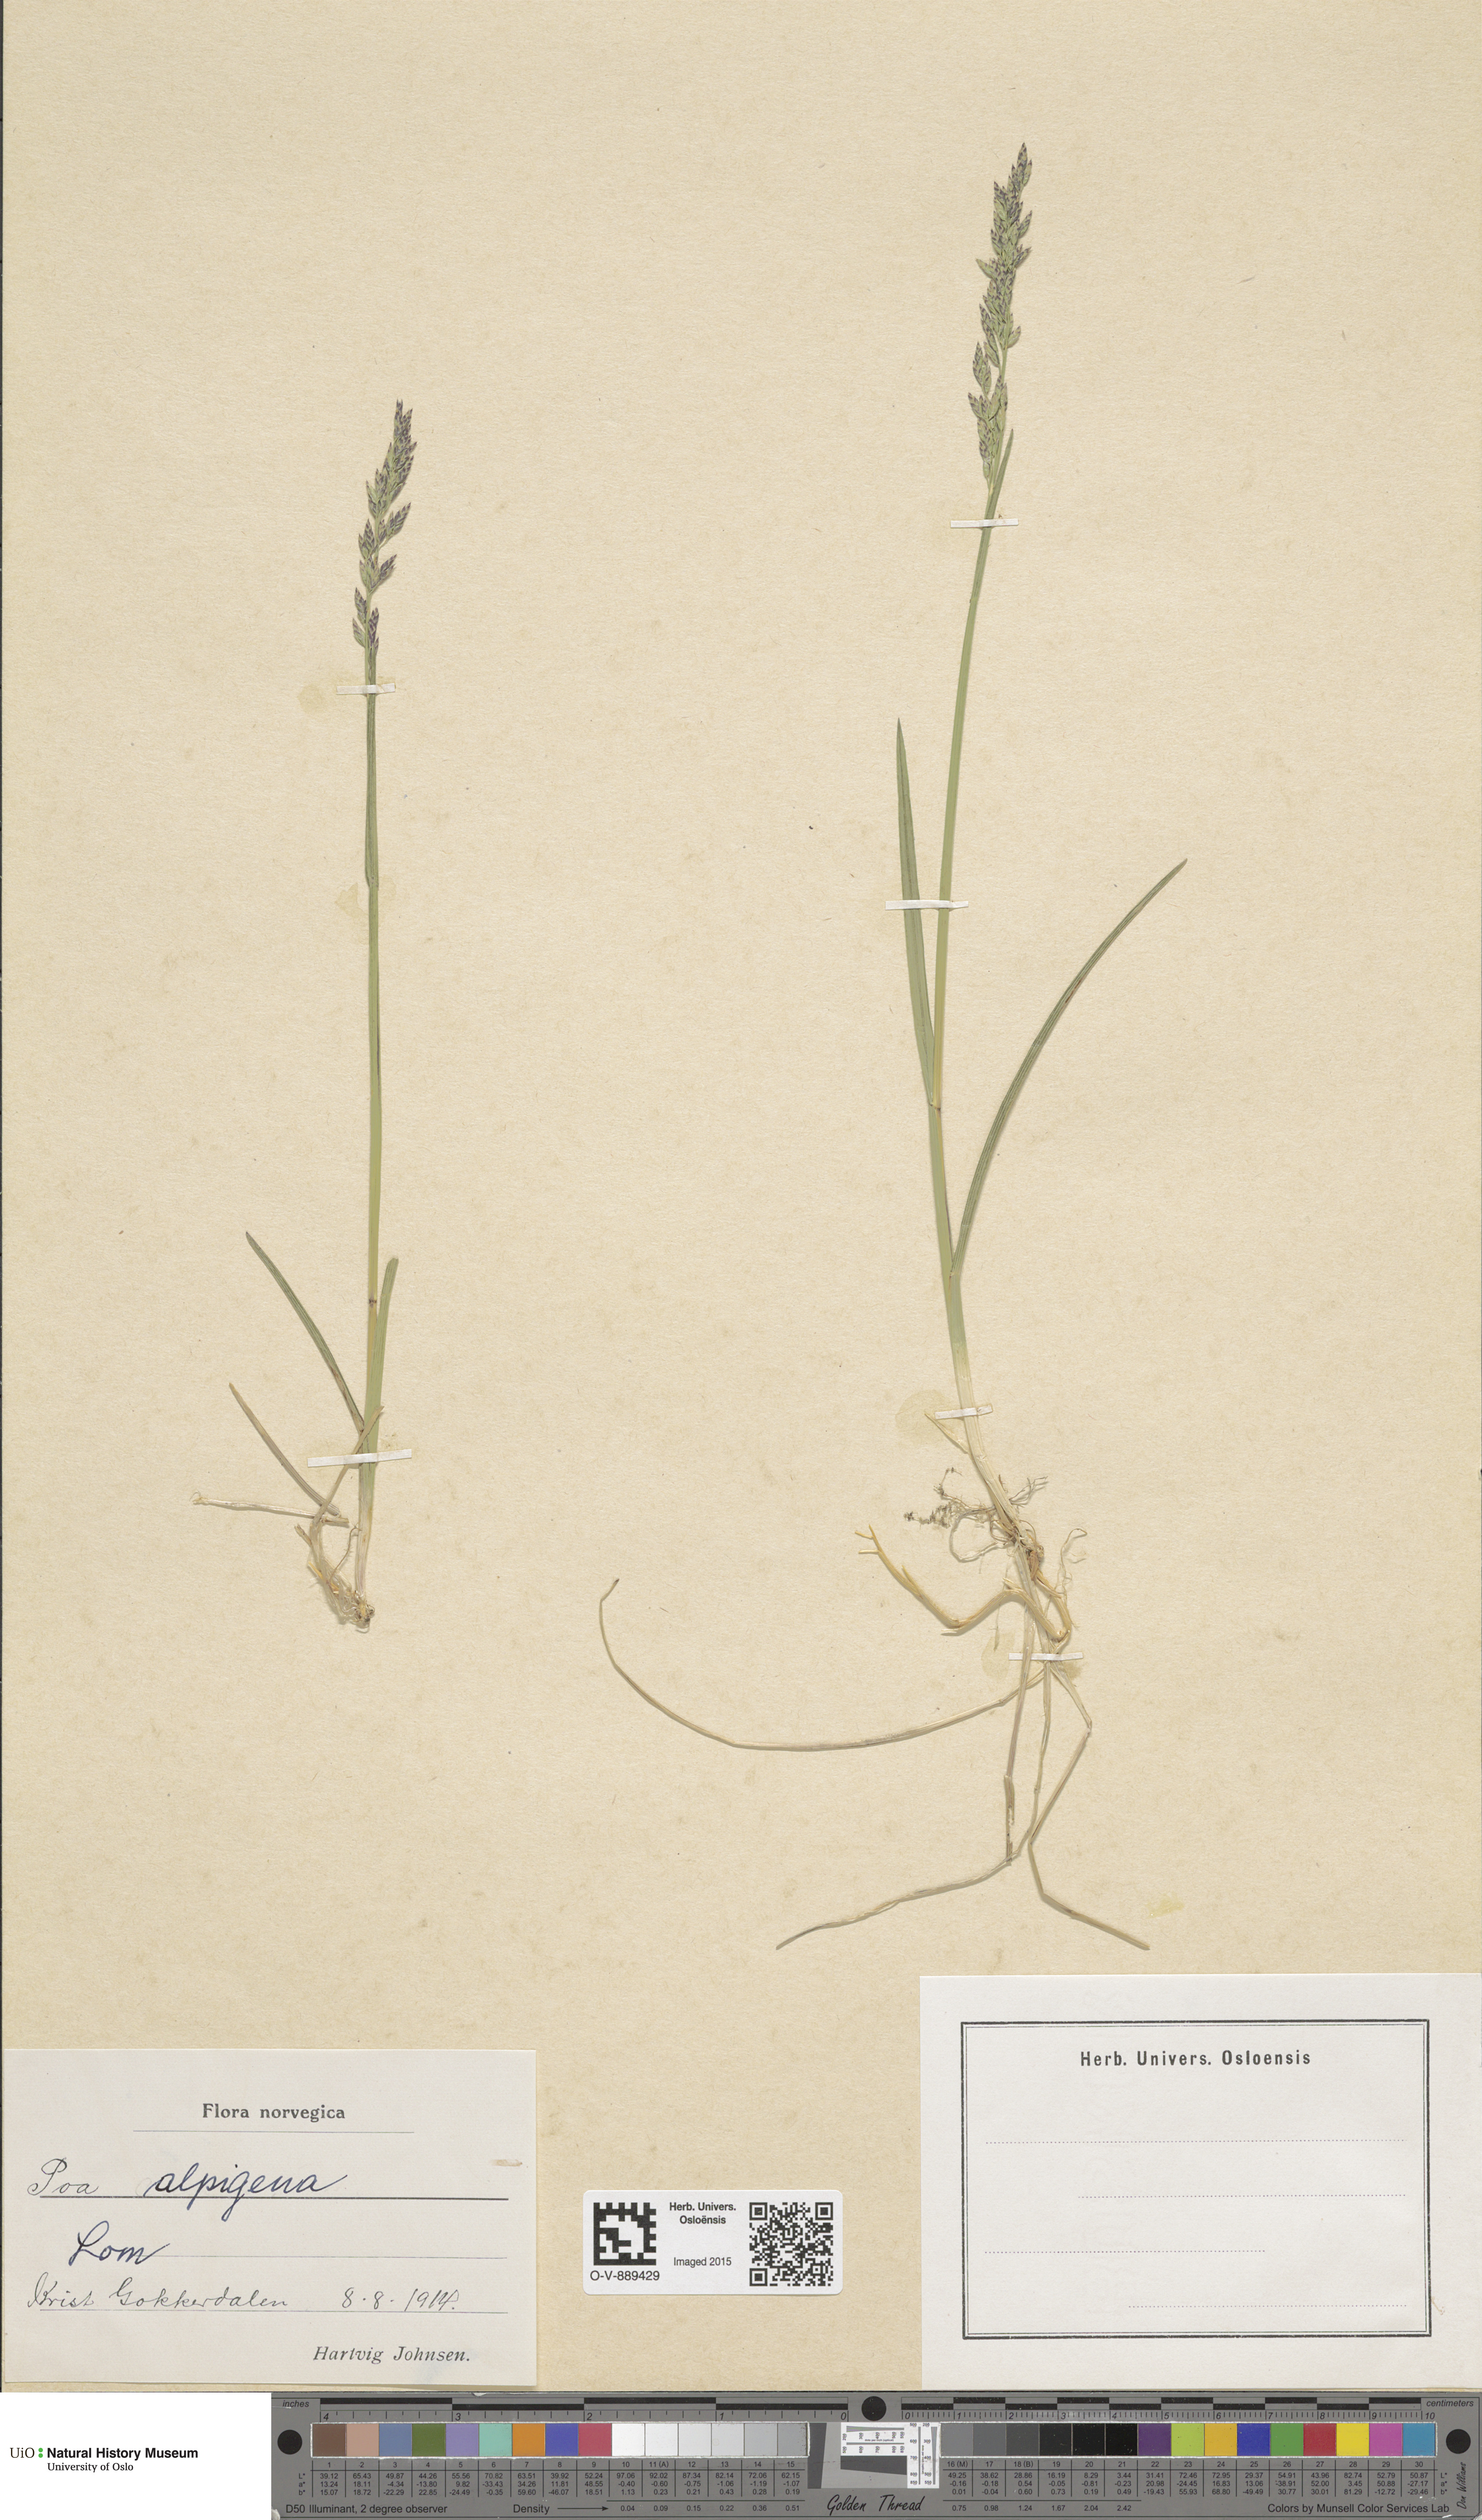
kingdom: Plantae
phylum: Tracheophyta
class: Liliopsida
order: Poales
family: Poaceae
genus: Poa
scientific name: Poa alpigena
